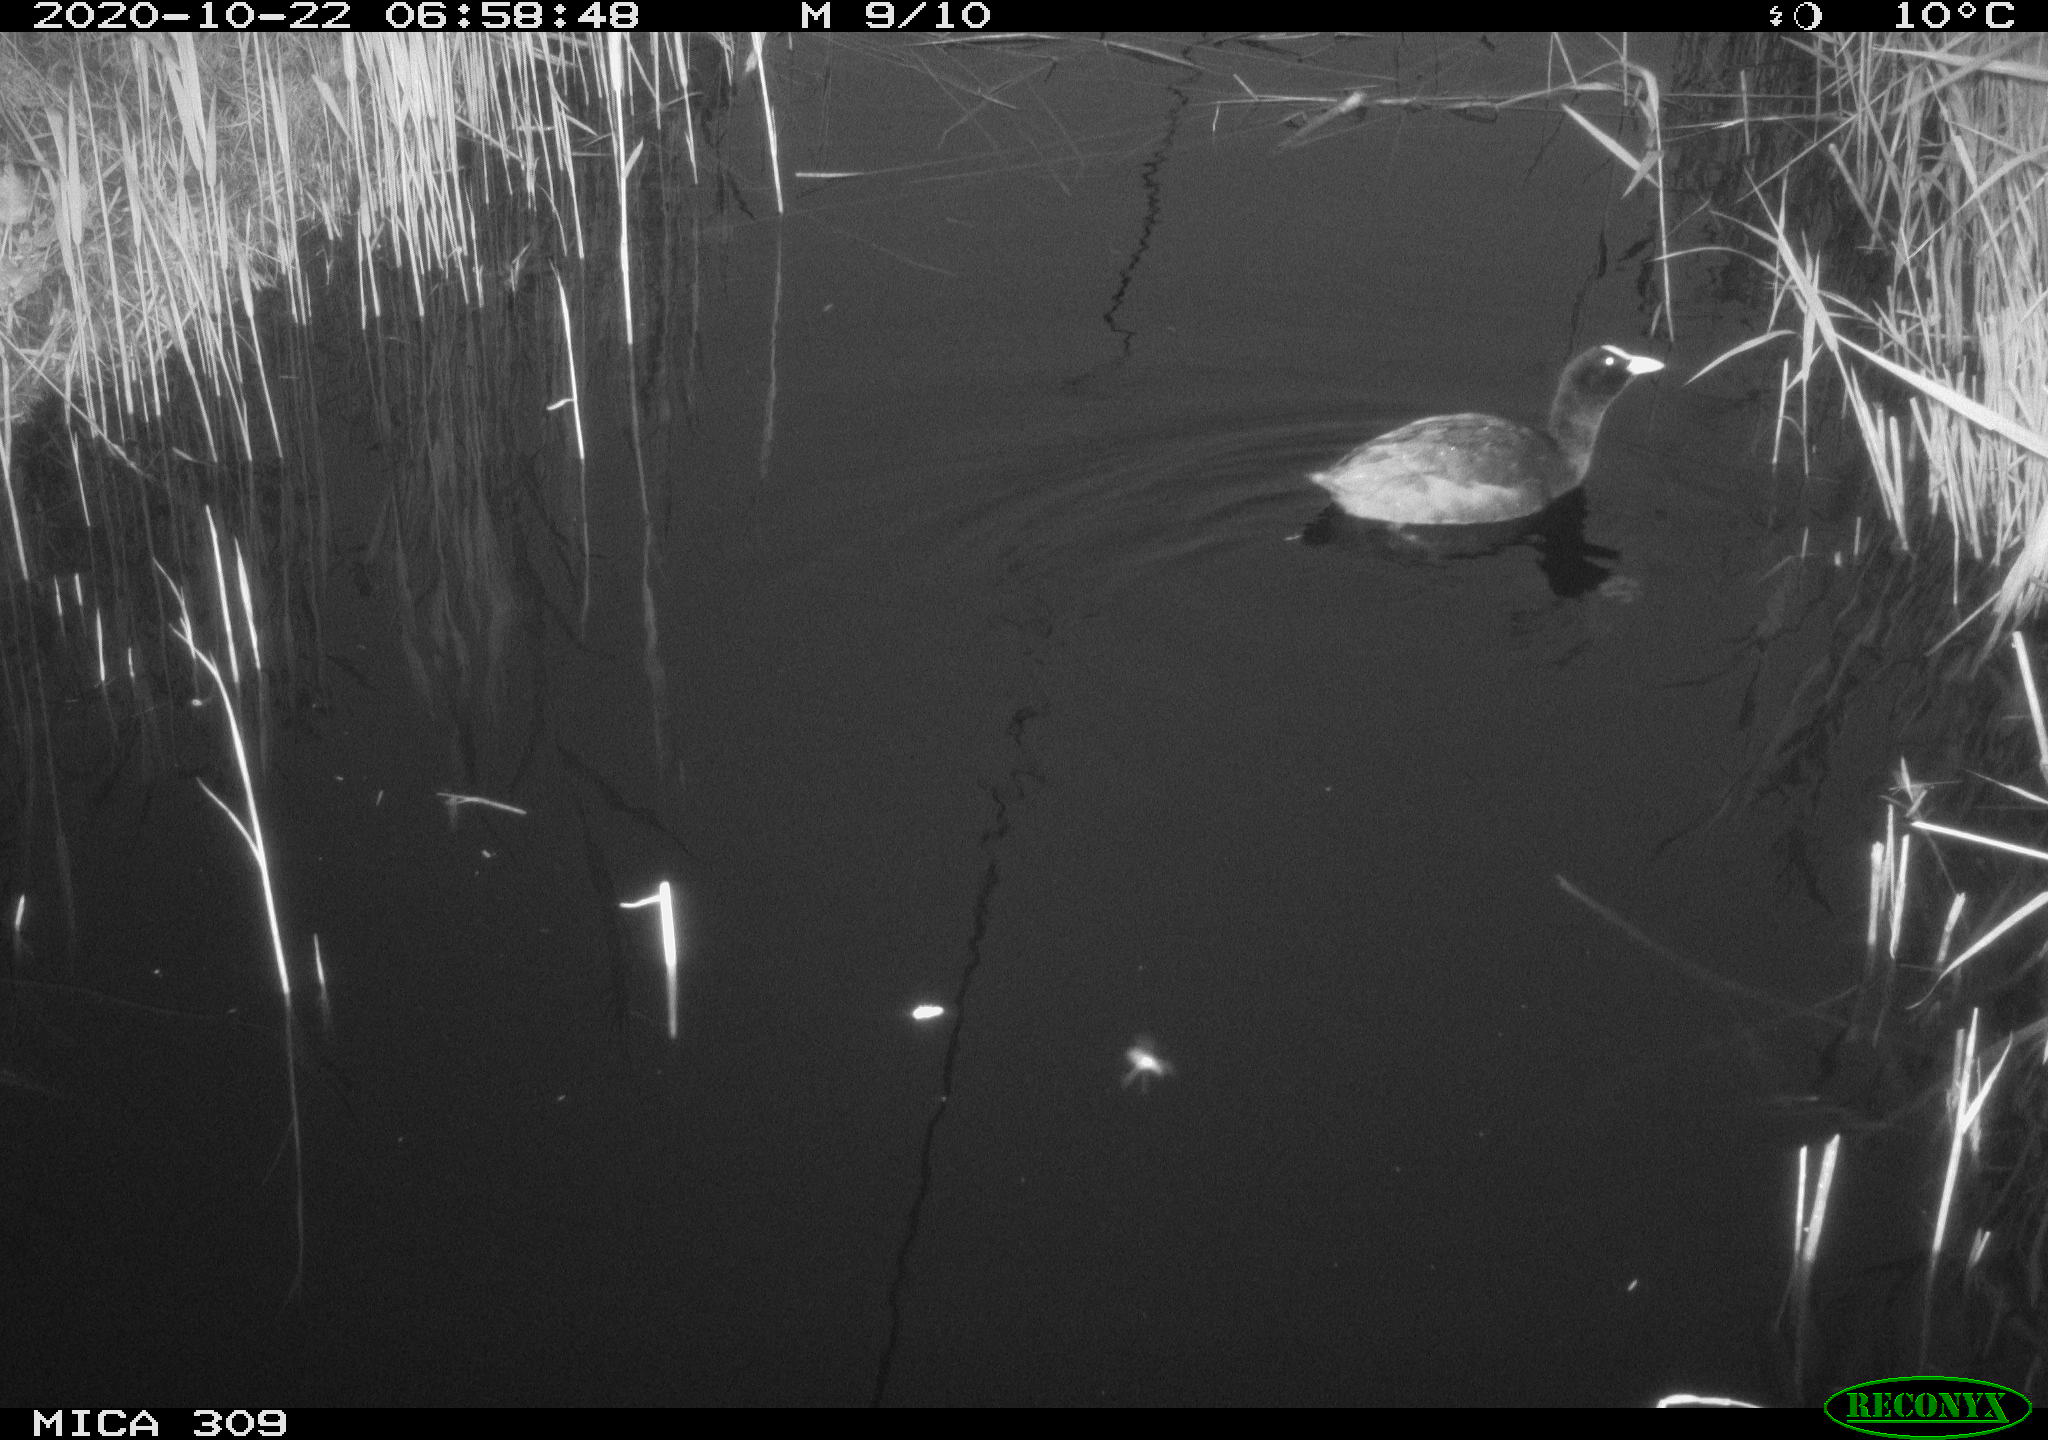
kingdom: Animalia
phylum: Chordata
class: Aves
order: Gruiformes
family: Rallidae
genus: Fulica
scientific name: Fulica atra
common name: Eurasian coot
